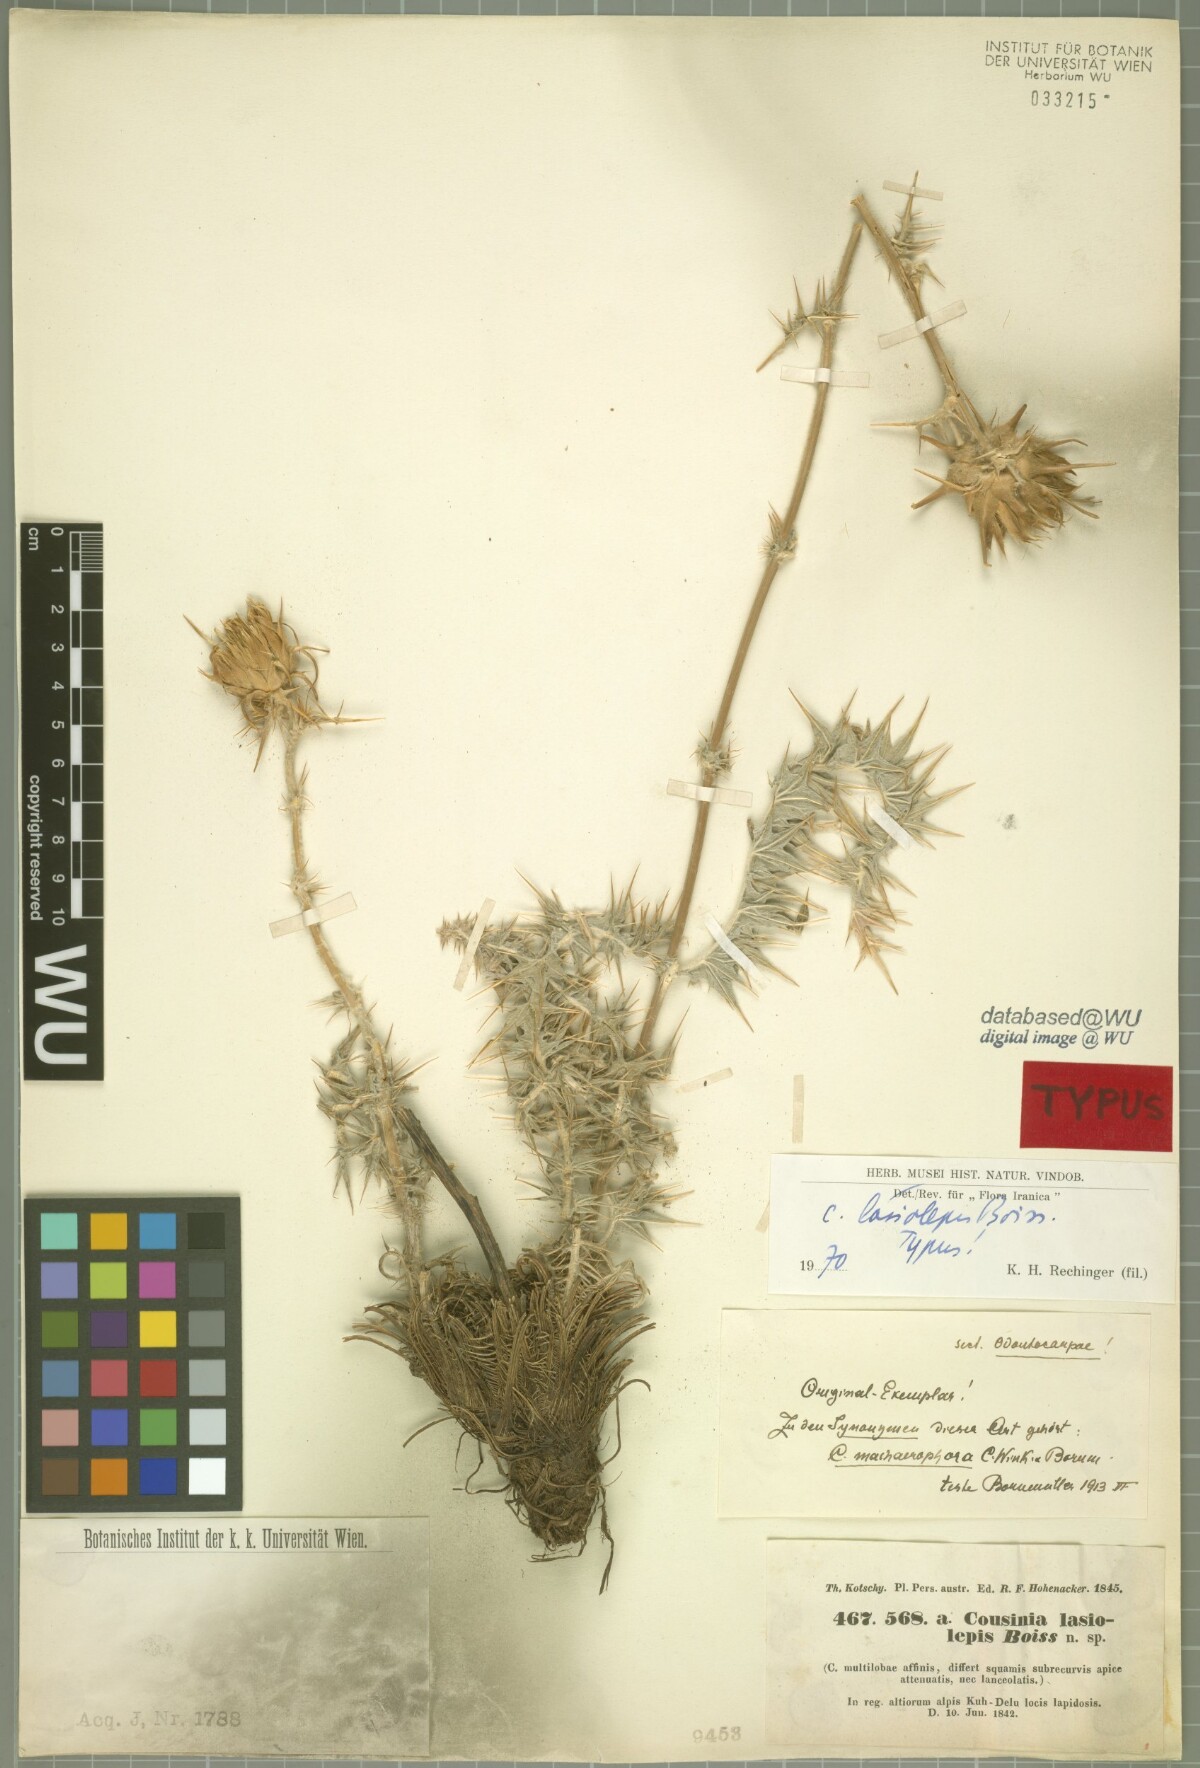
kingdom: Plantae
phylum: Tracheophyta
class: Magnoliopsida
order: Asterales
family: Asteraceae
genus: Cousinia
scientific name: Cousinia lasiolepis
